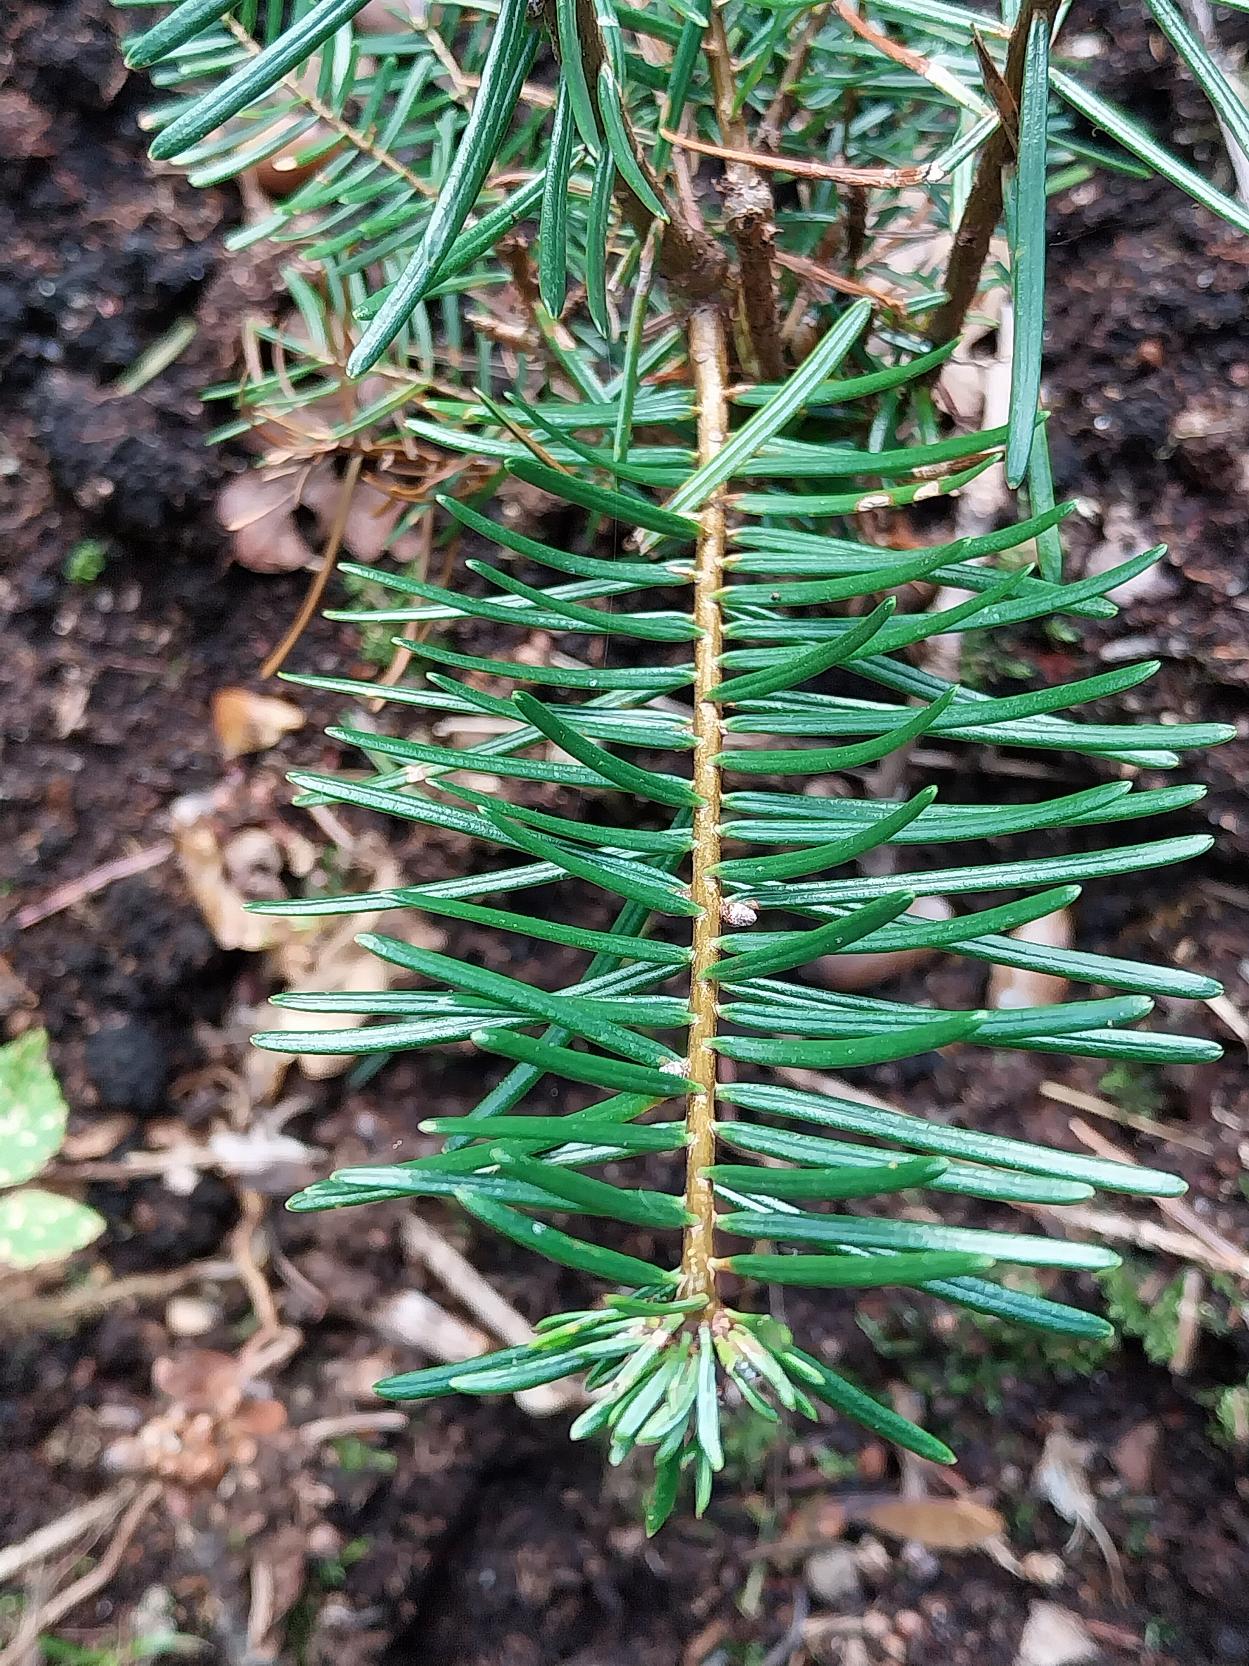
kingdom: Plantae
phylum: Tracheophyta
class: Pinopsida
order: Pinales
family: Pinaceae
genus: Abies
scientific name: Abies grandis
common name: Kæmpegran
